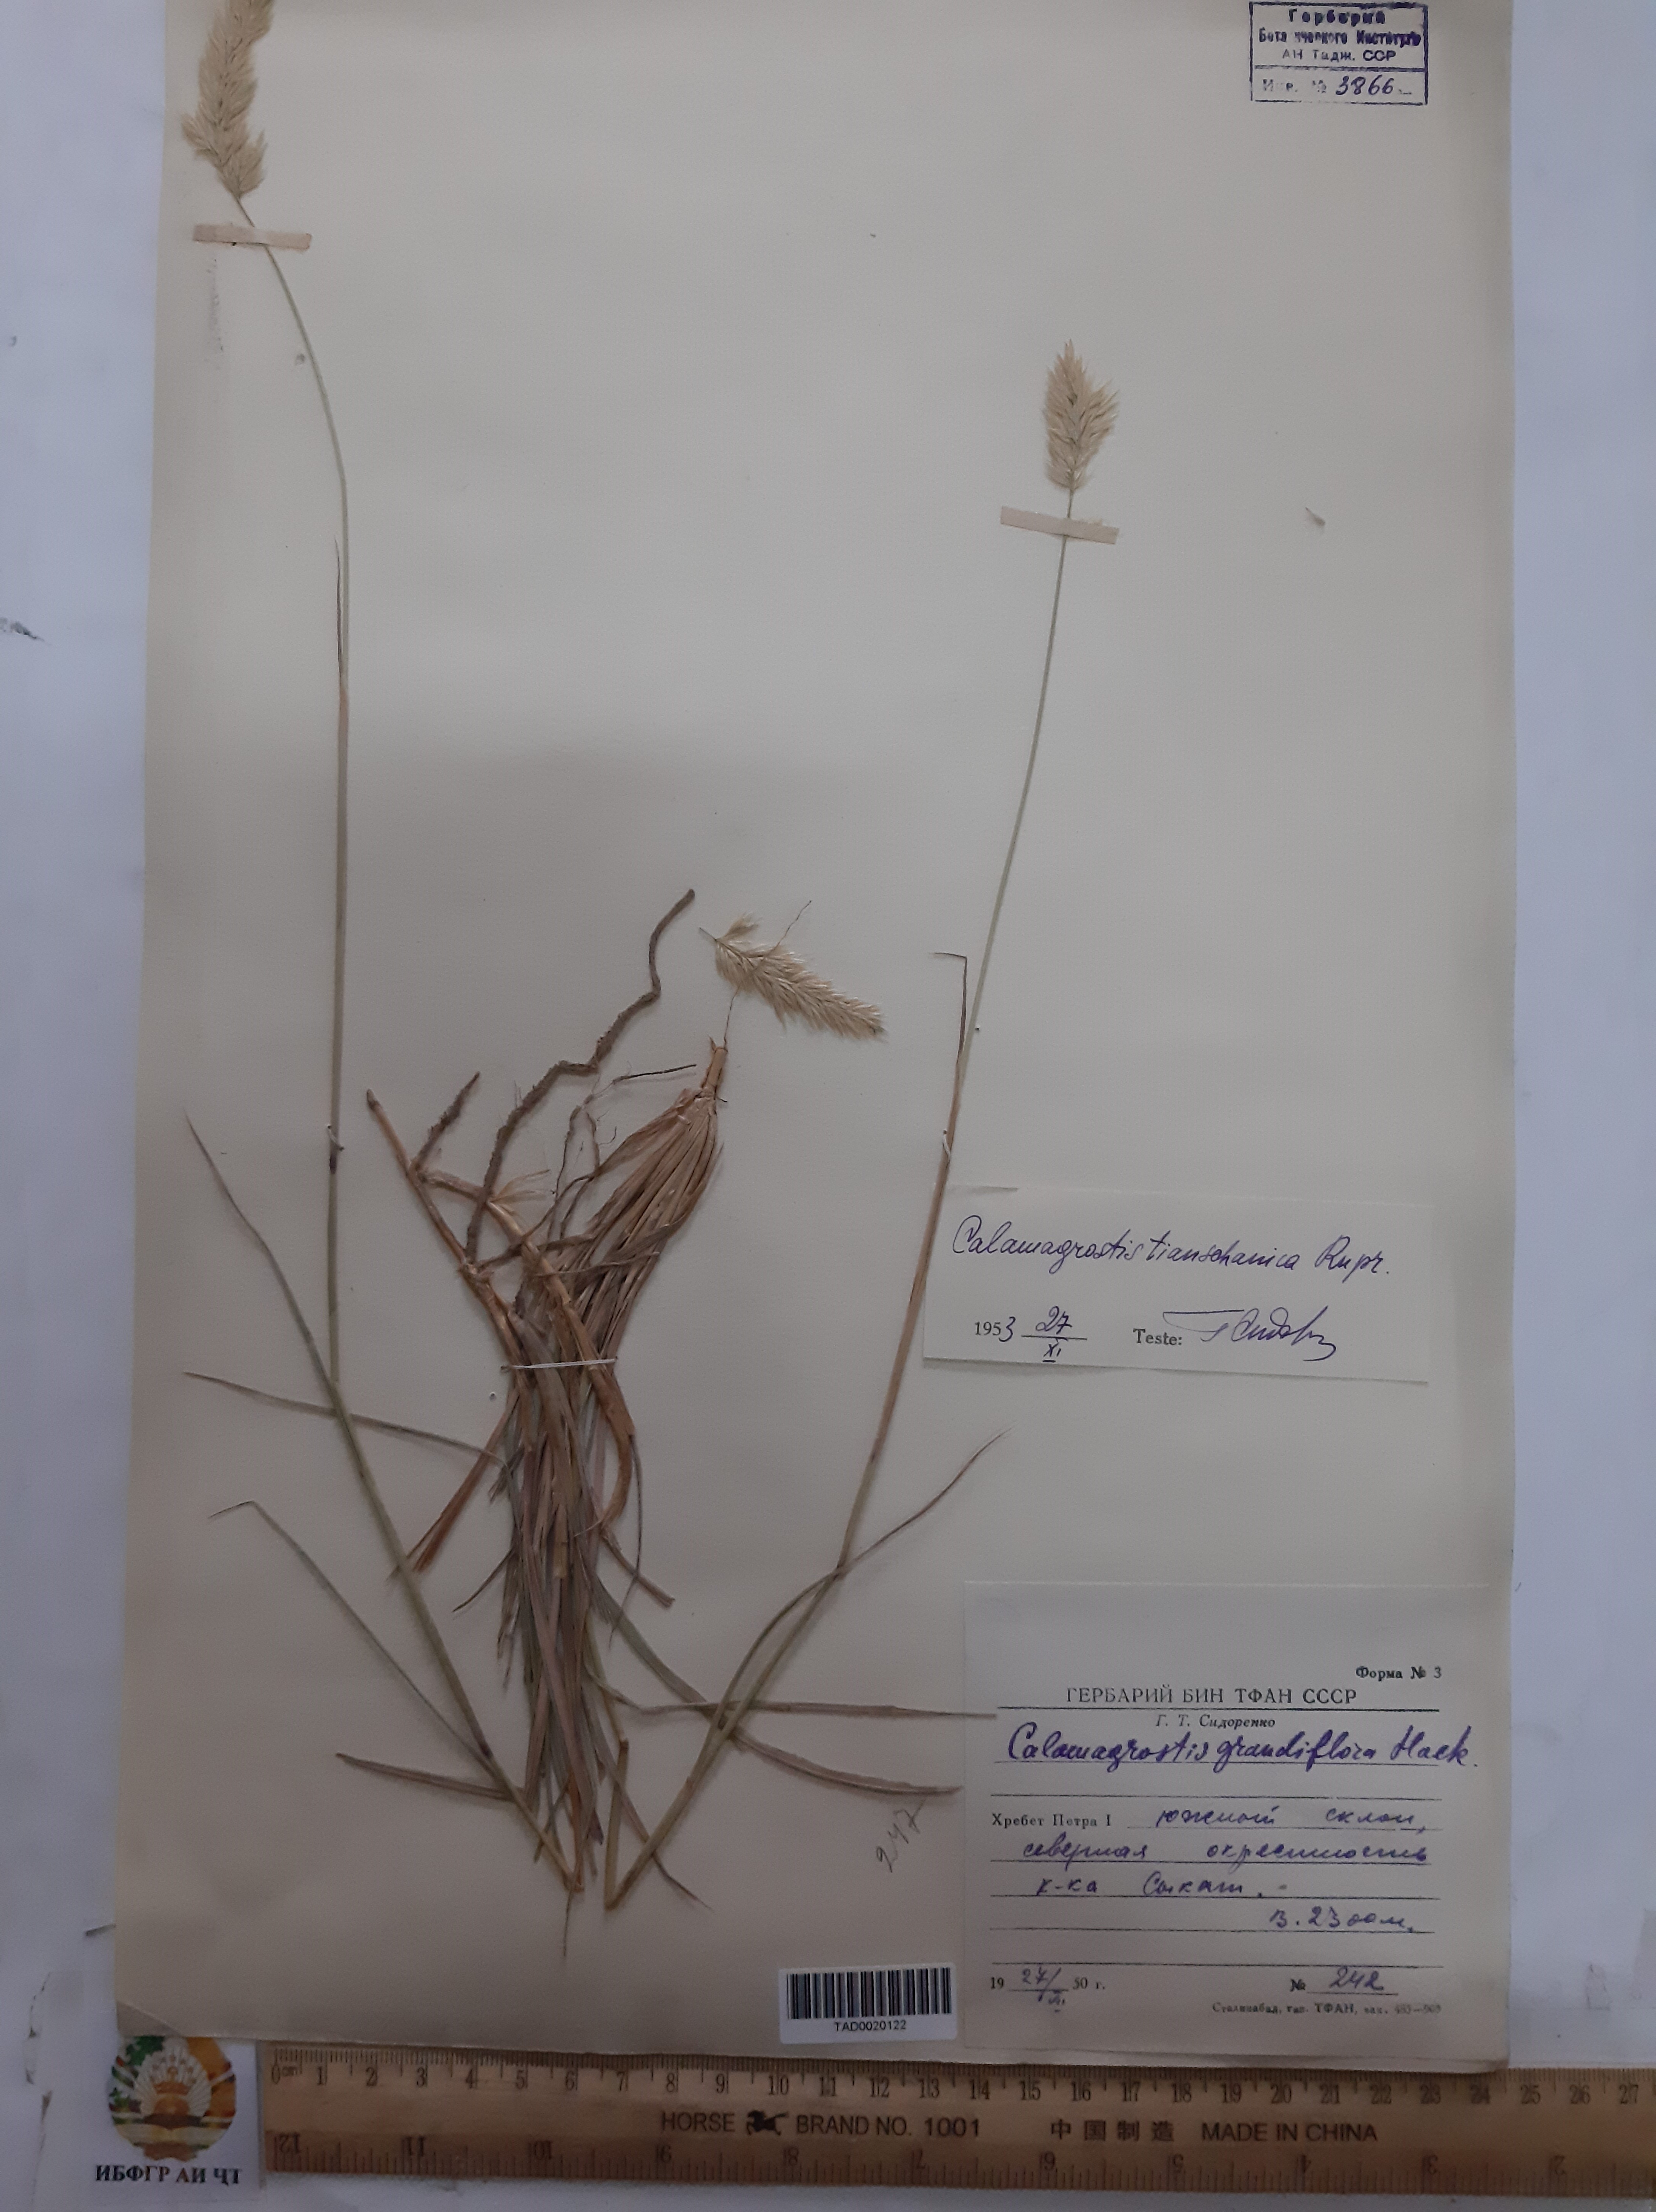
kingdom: Plantae
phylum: Tracheophyta
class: Liliopsida
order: Poales
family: Poaceae
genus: Calamagrostis
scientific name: Calamagrostis holciformis
